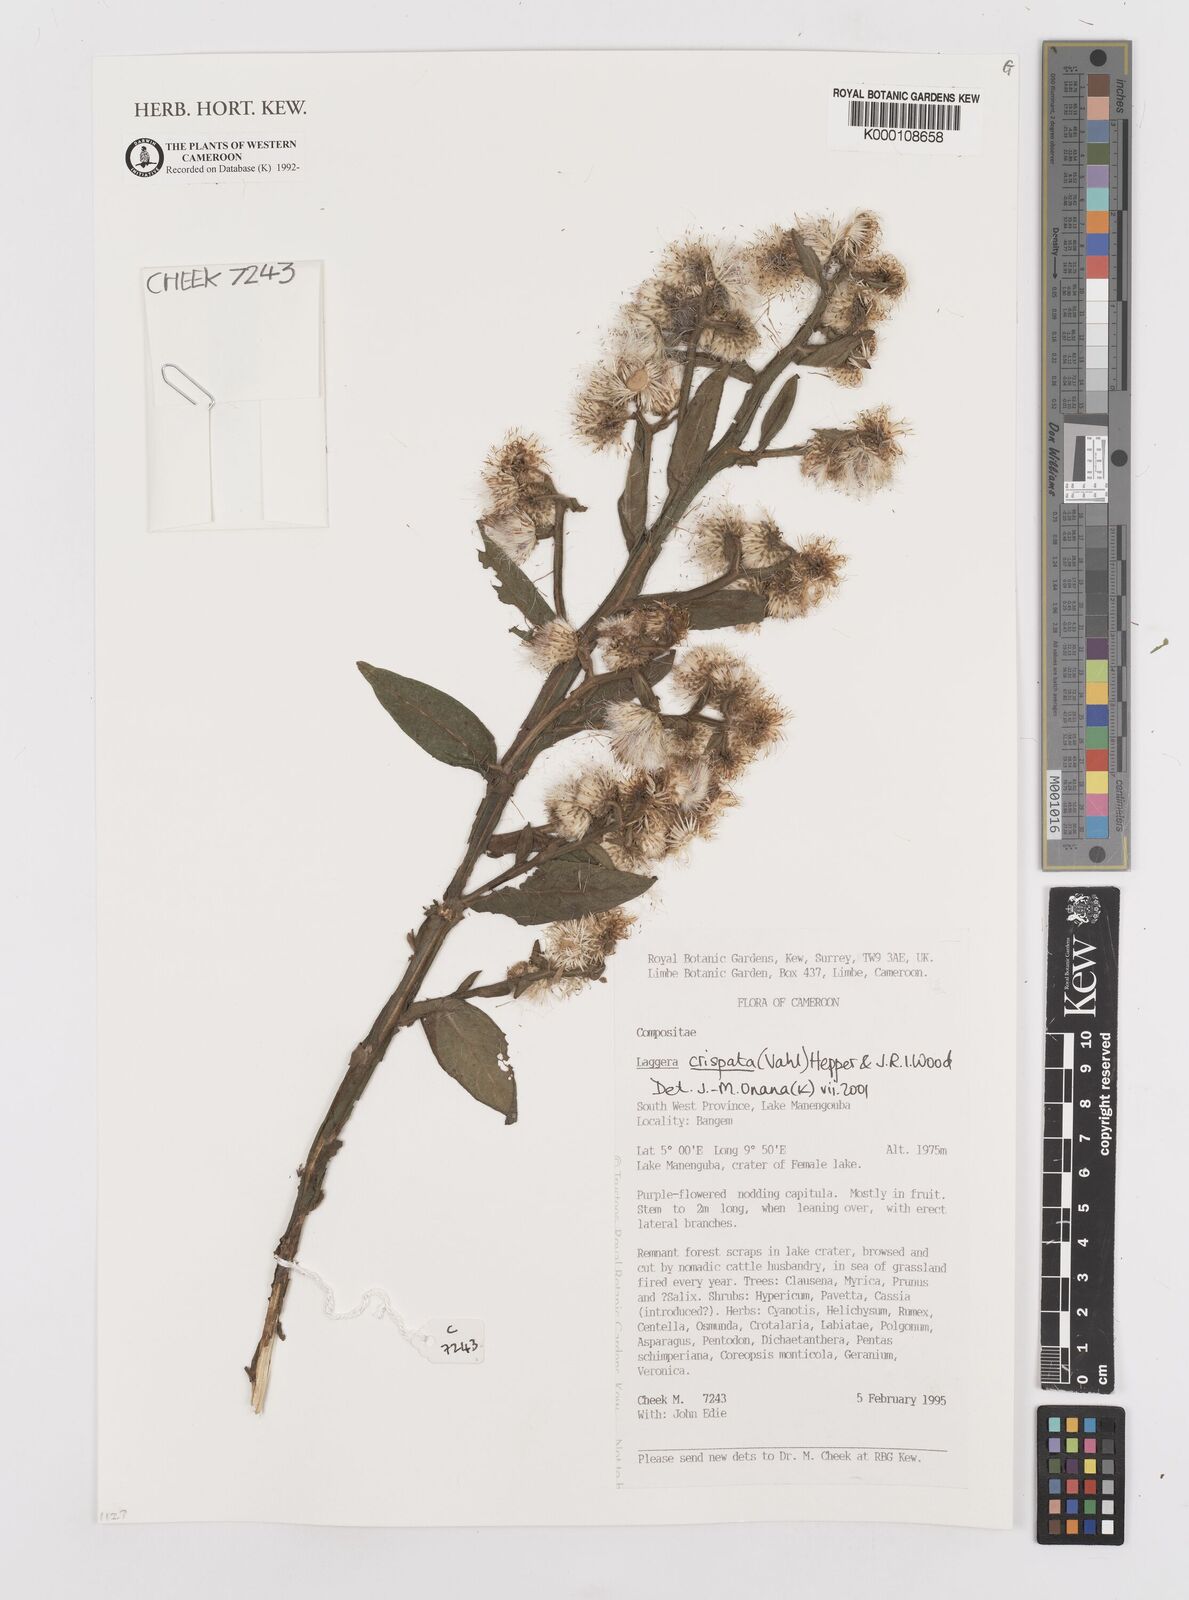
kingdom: Plantae
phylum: Tracheophyta
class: Magnoliopsida
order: Asterales
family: Asteraceae
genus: Laggera
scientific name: Laggera crispata
